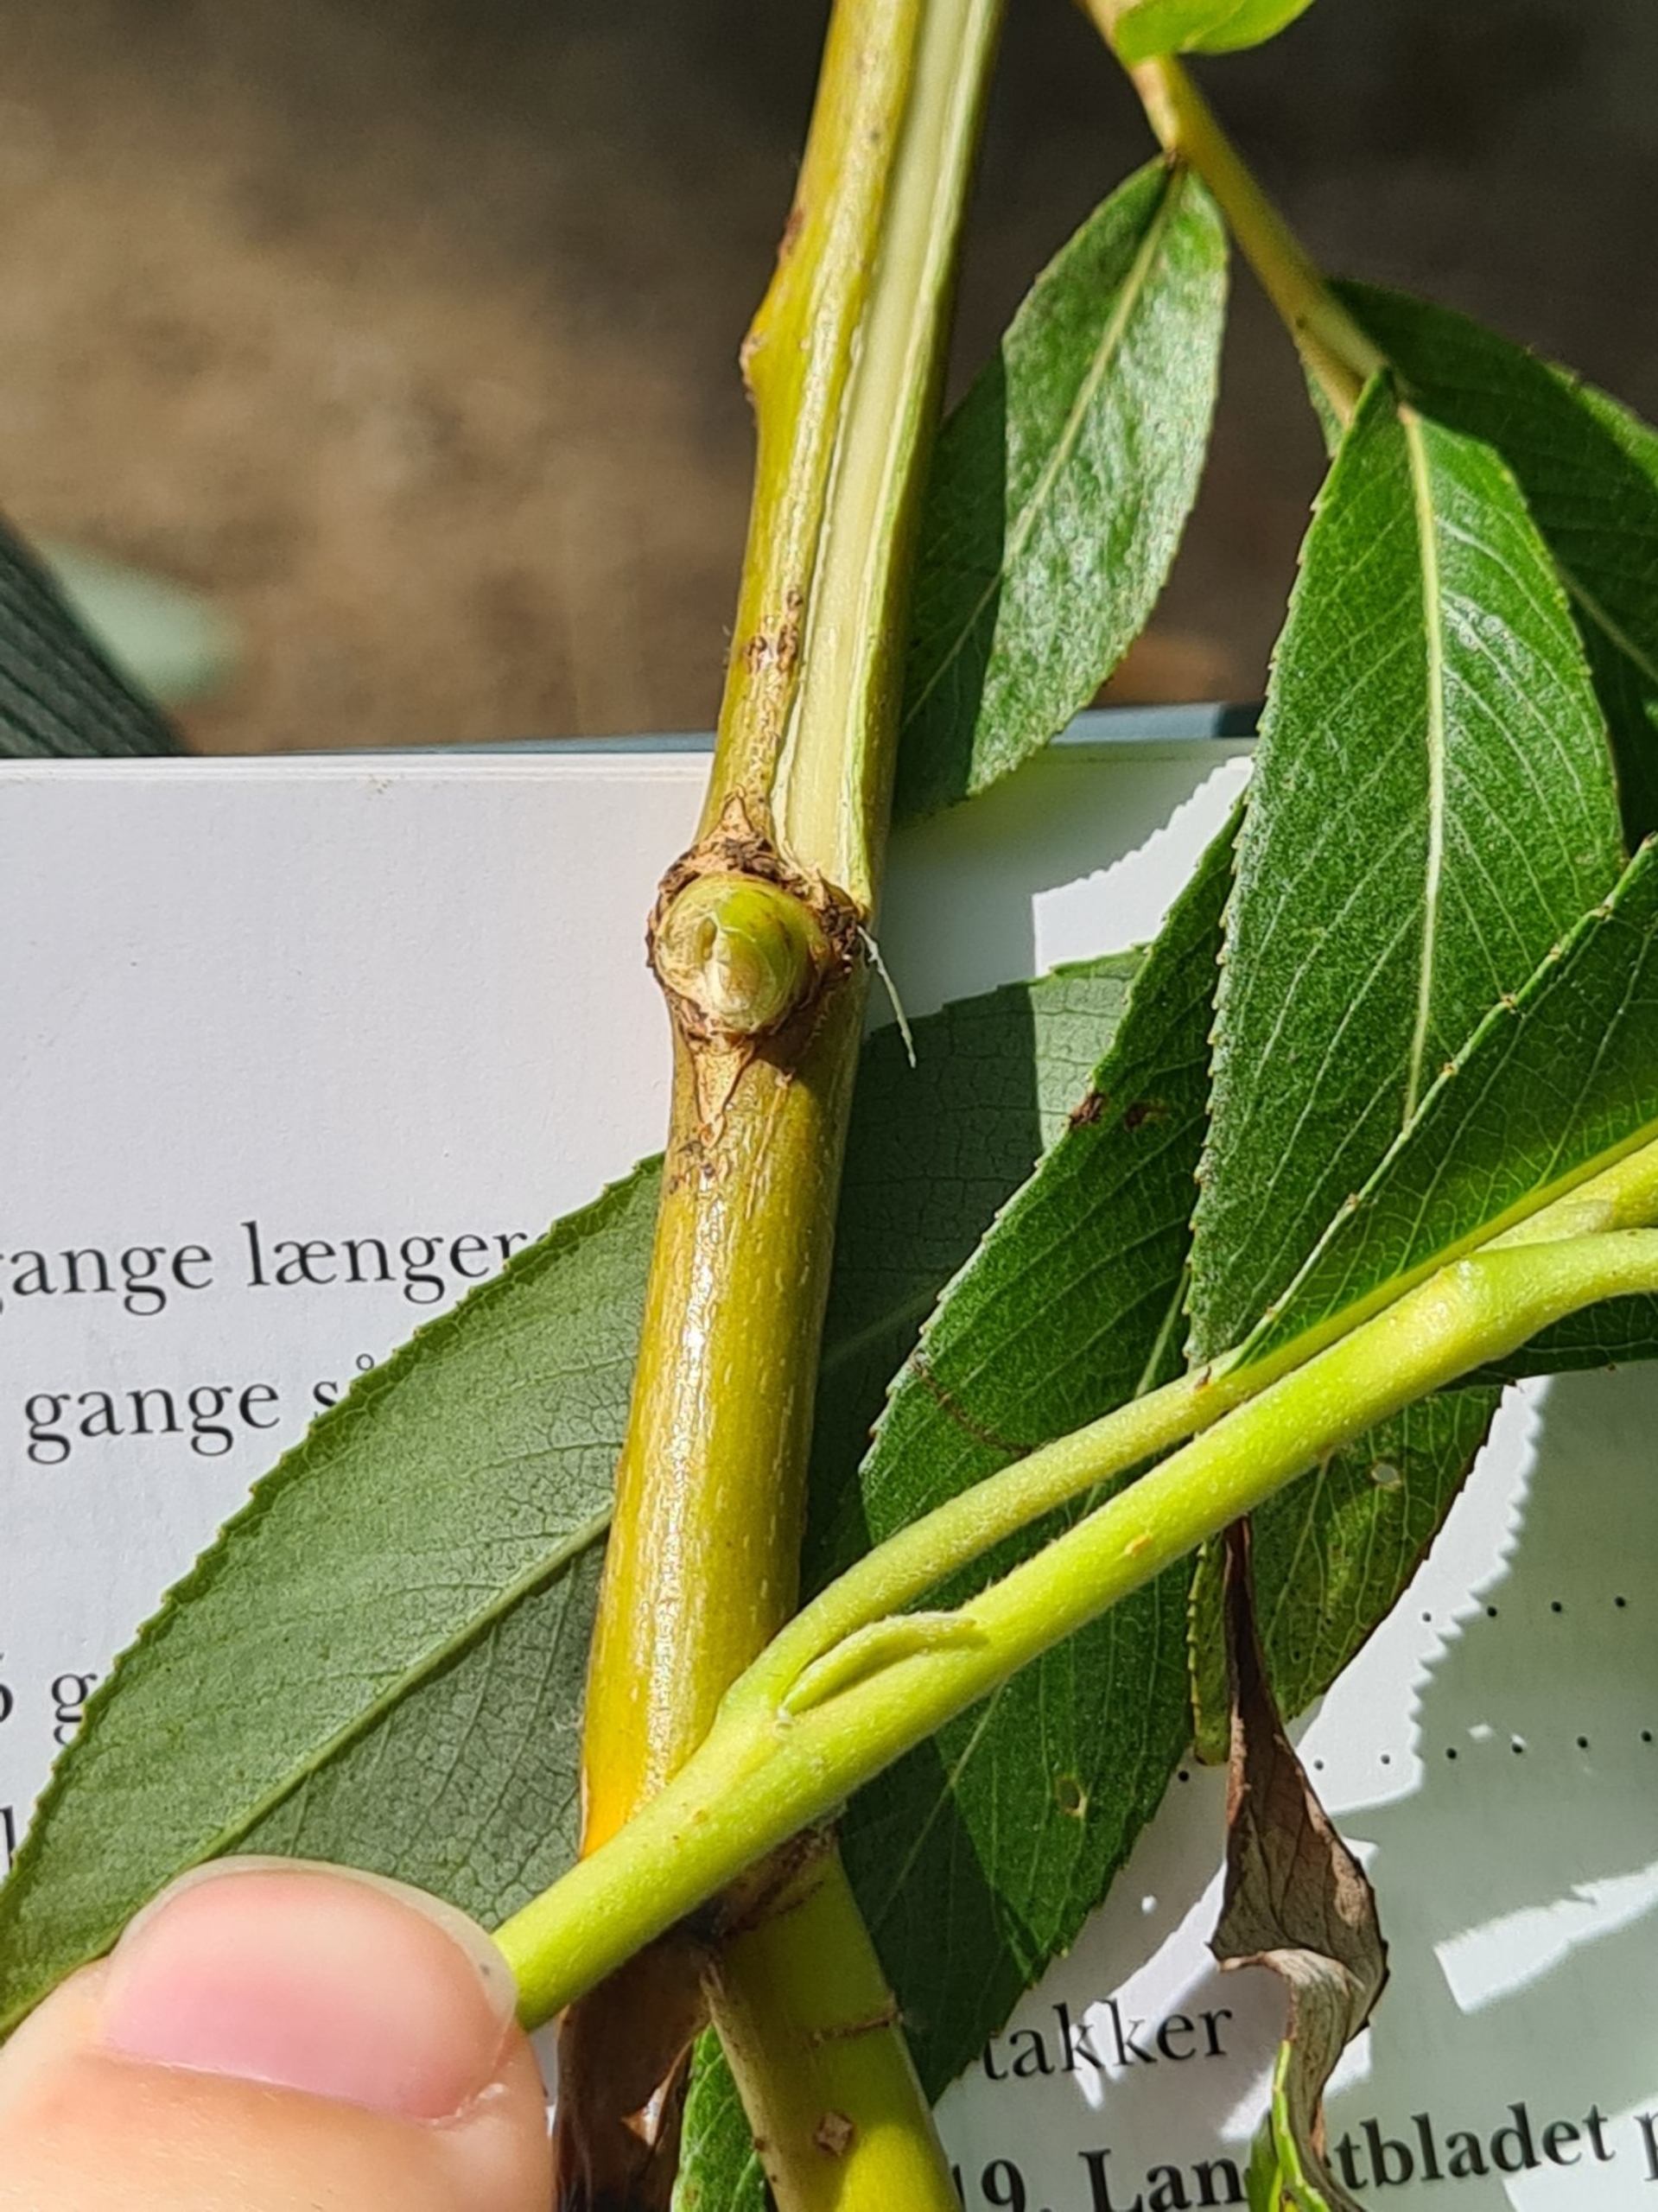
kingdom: Plantae
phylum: Tracheophyta
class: Magnoliopsida
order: Malpighiales
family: Salicaceae
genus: Salix
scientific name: Salix meyeriana
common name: Glans-pil
